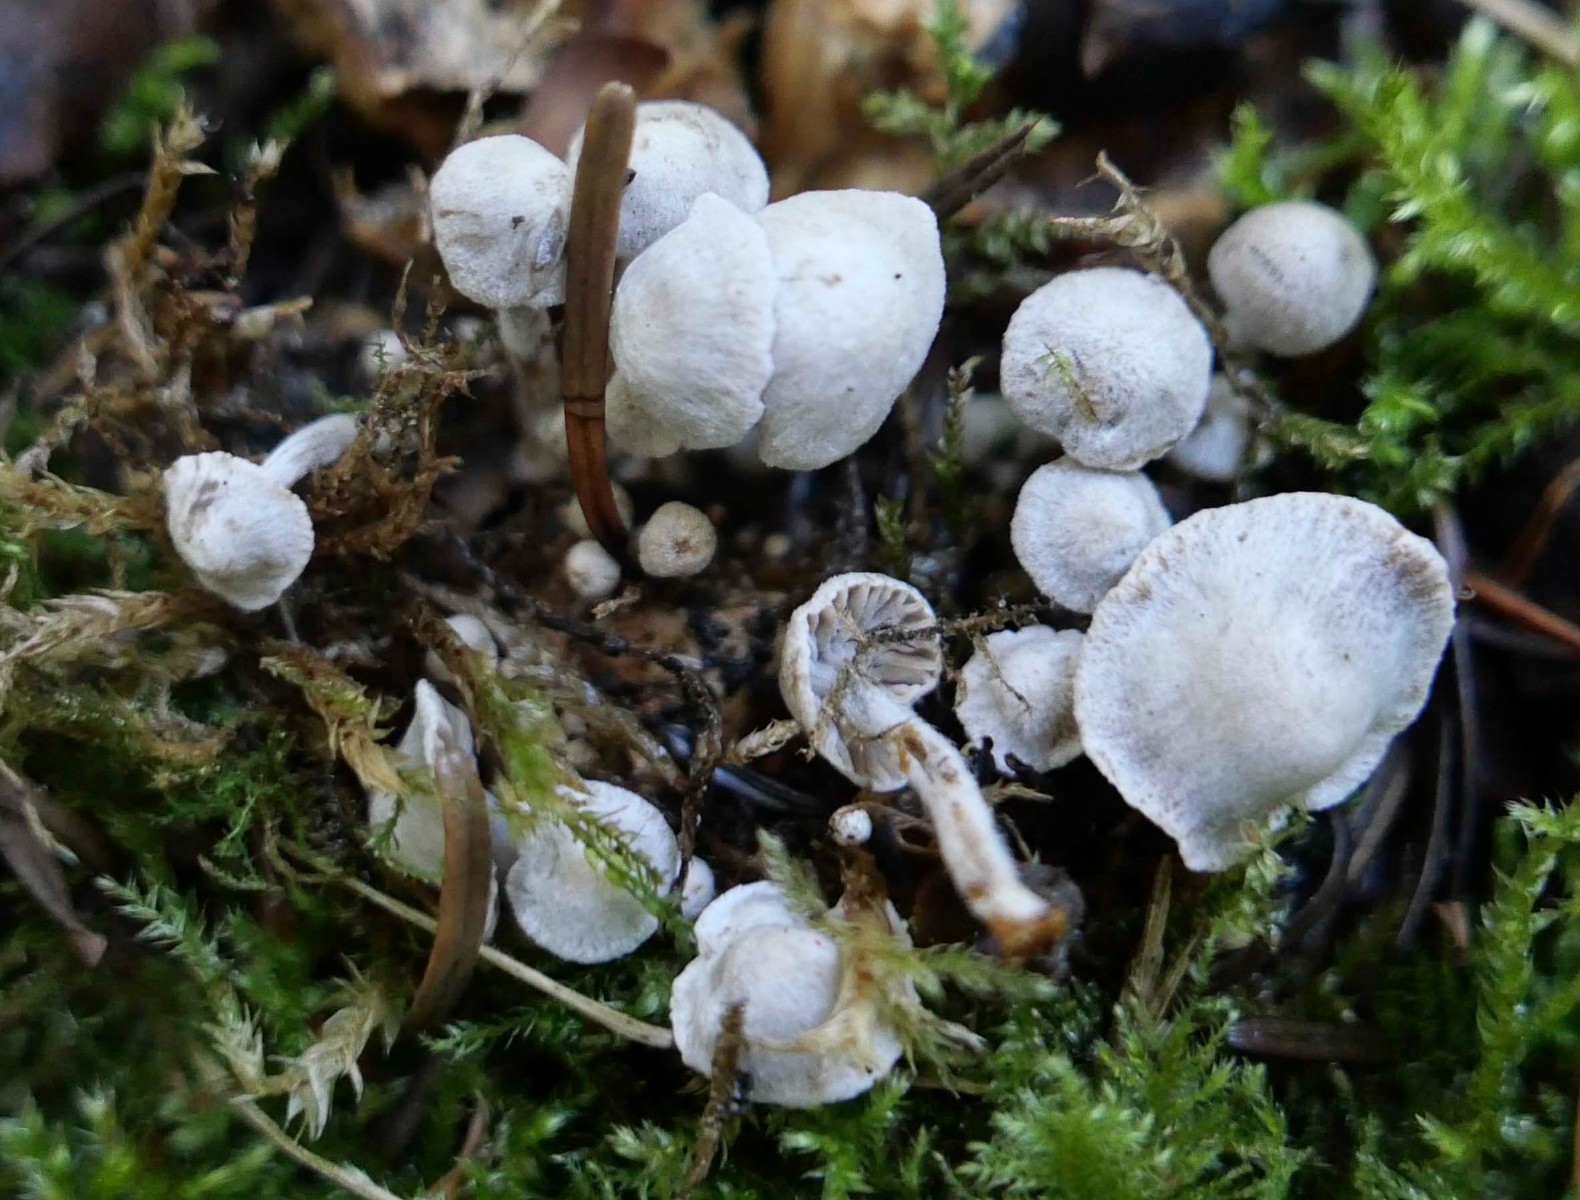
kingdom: Fungi
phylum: Basidiomycota
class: Agaricomycetes
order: Agaricales
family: Lyophyllaceae
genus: Asterophora
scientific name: Asterophora parasitica
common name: grå snyltehat
